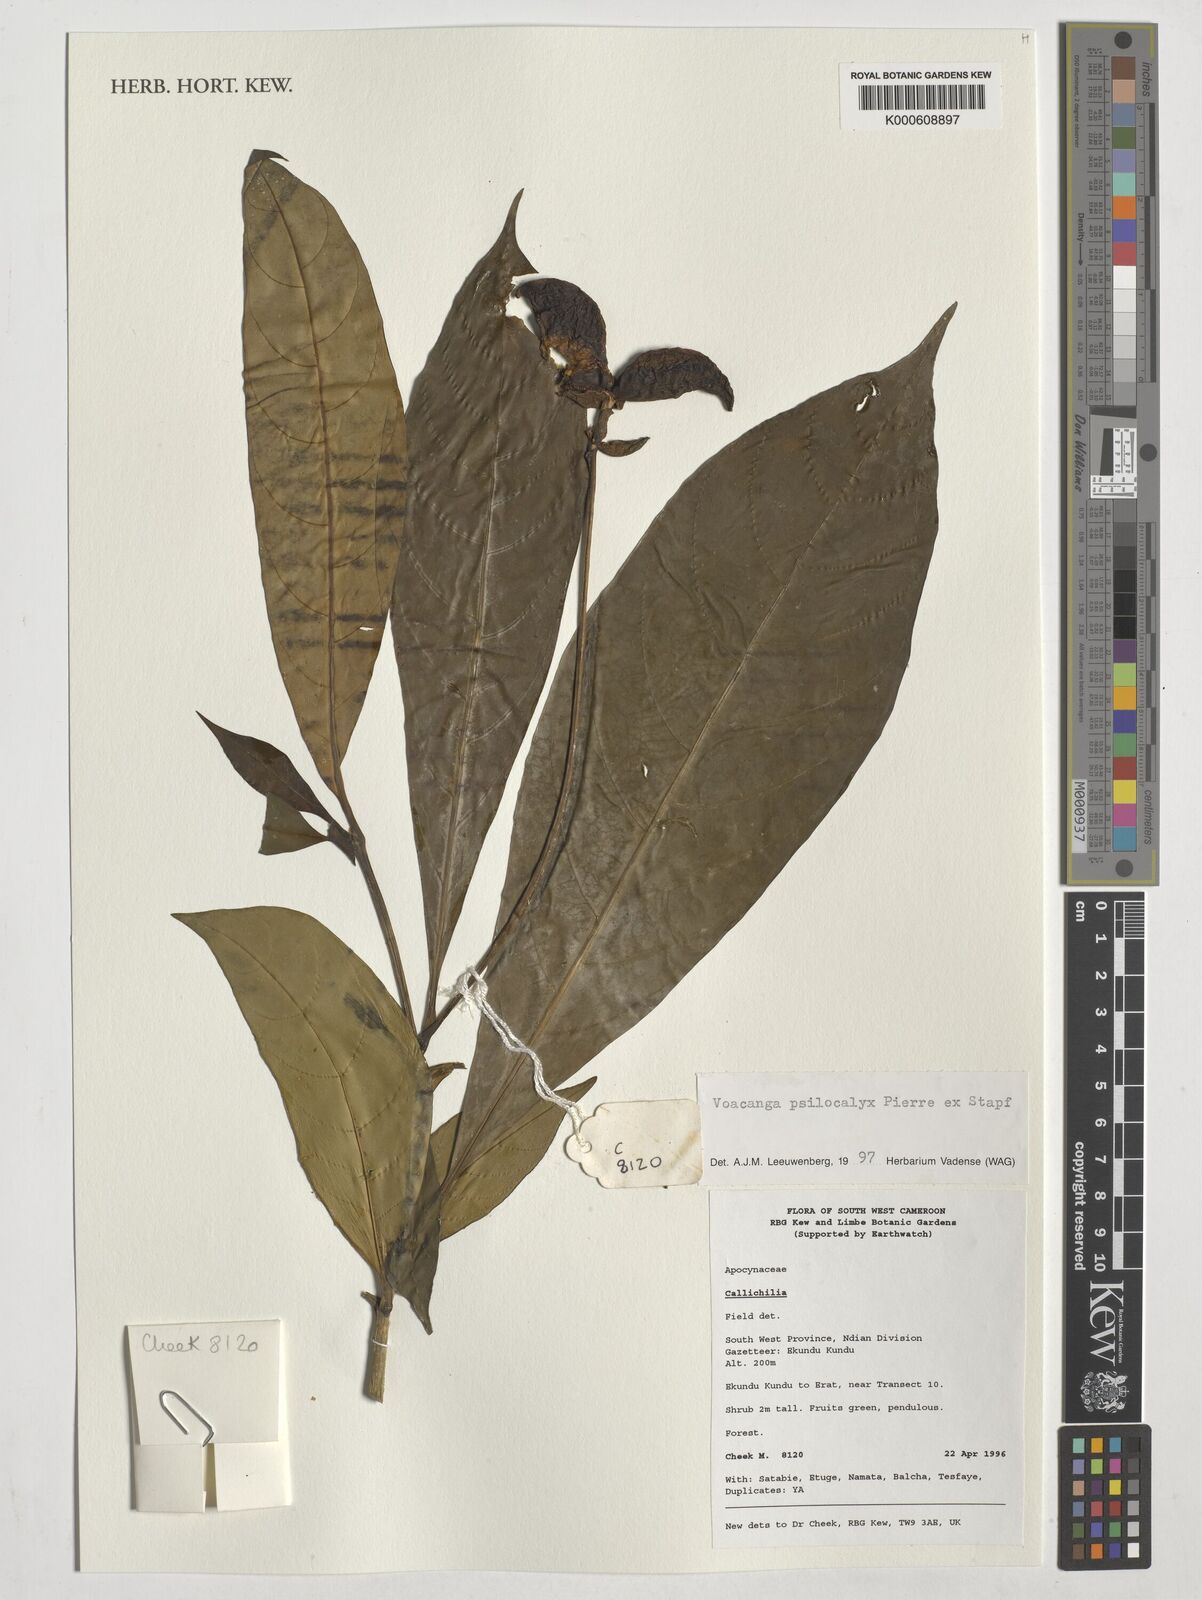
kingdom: Plantae
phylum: Tracheophyta
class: Magnoliopsida
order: Gentianales
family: Apocynaceae
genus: Voacanga
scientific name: Voacanga psilocalyx
